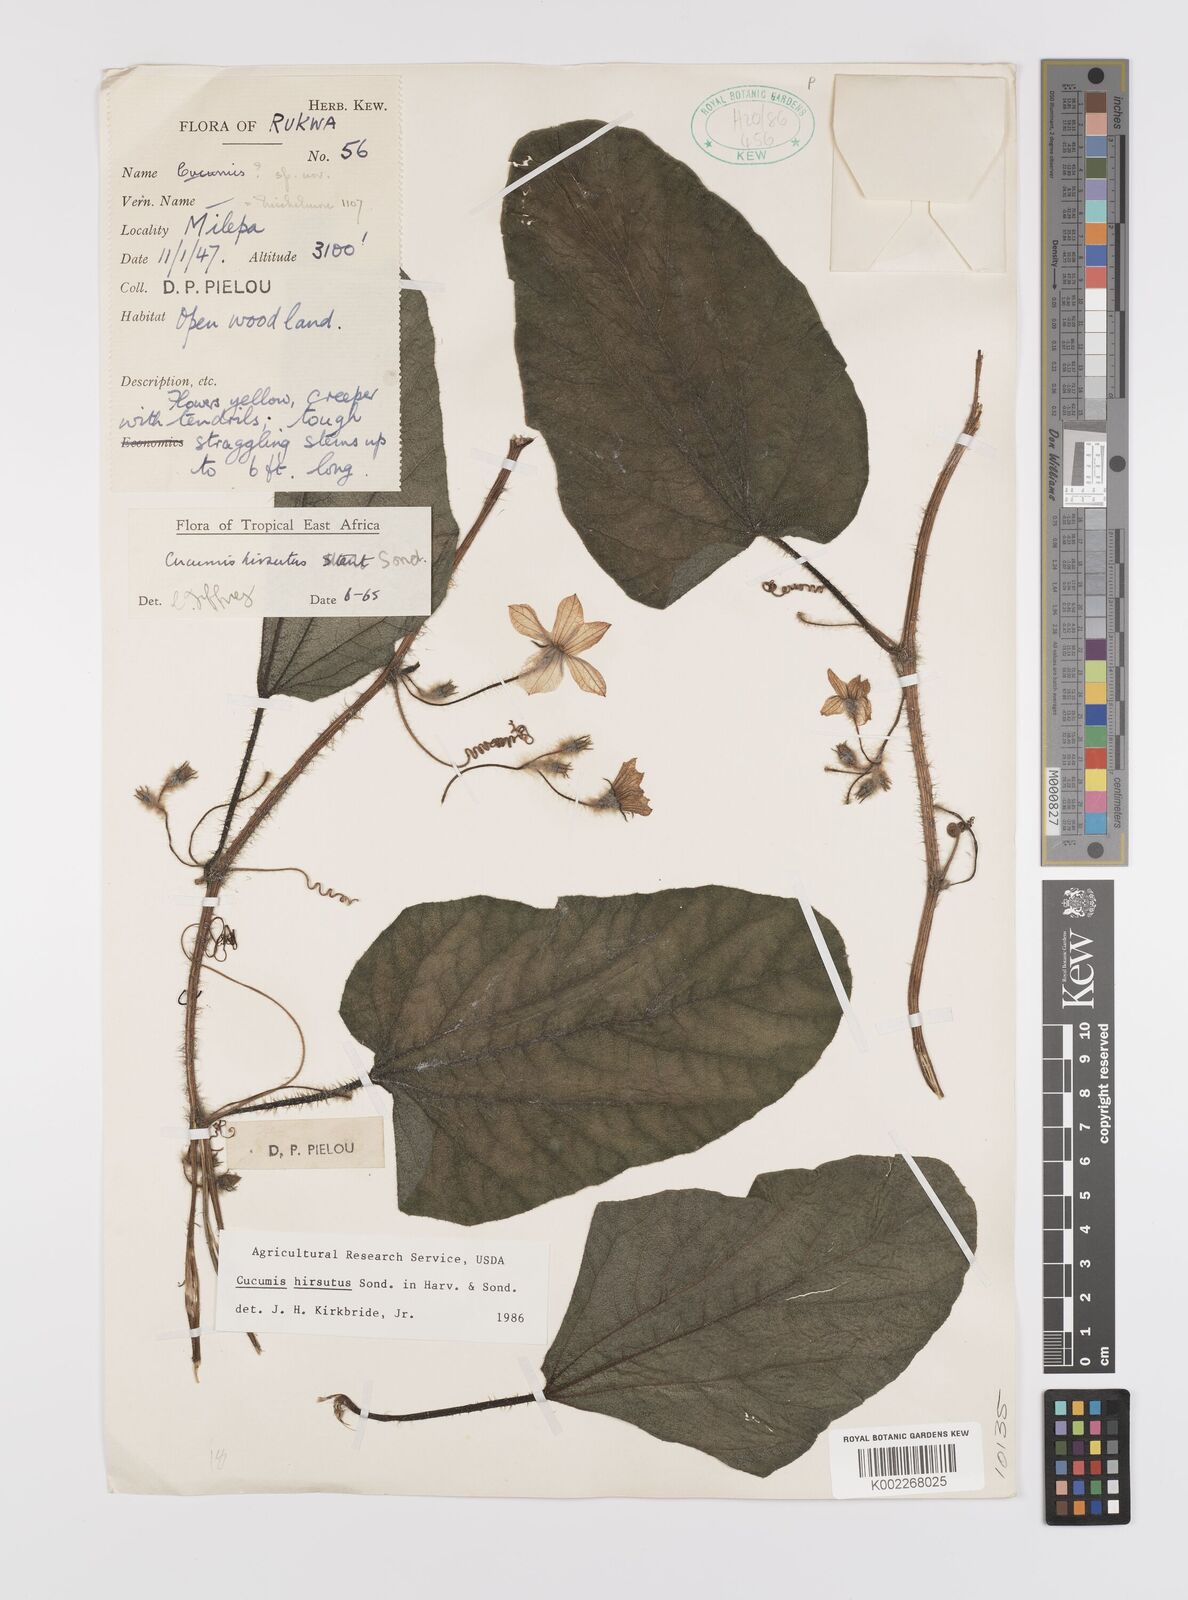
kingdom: Plantae
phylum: Tracheophyta
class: Magnoliopsida
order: Cucurbitales
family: Cucurbitaceae
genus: Cucumis
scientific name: Cucumis hirsutus
